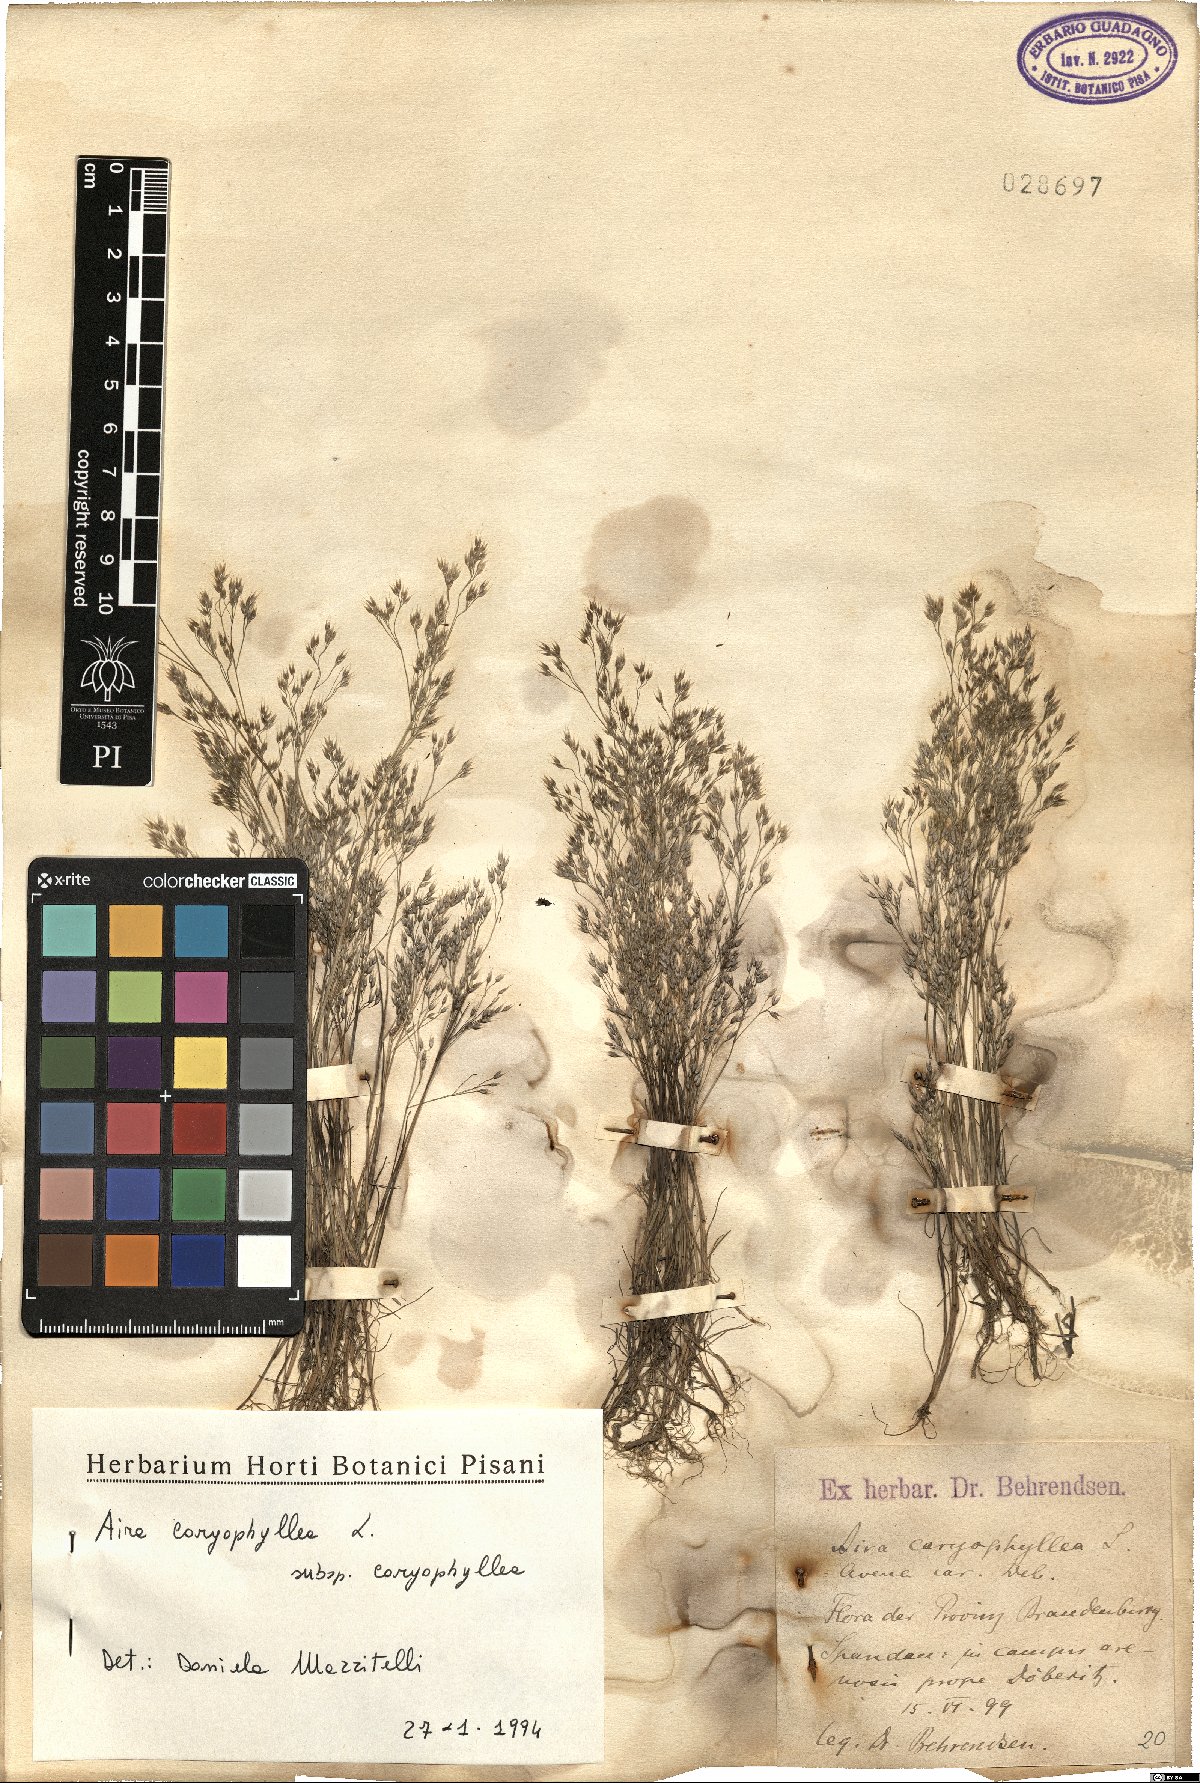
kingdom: Plantae
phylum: Tracheophyta
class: Liliopsida
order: Poales
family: Poaceae
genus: Aira
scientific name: Aira caryophyllea
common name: Silver hairgrass
